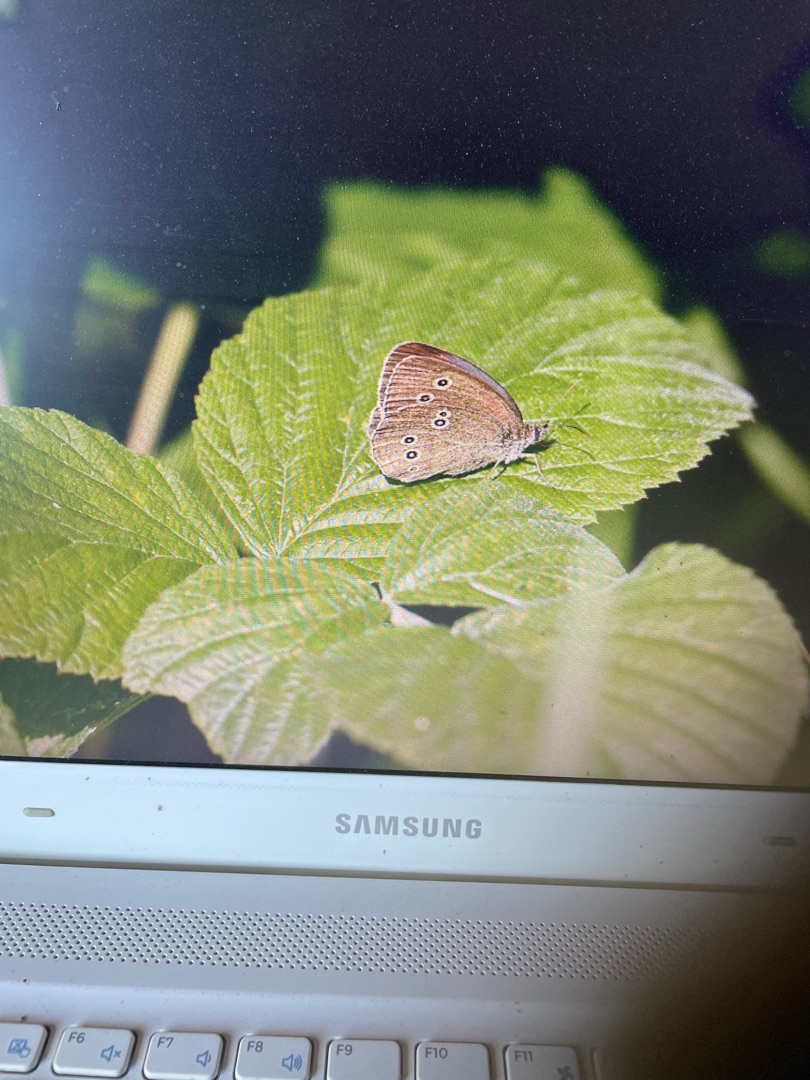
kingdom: Animalia
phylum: Arthropoda
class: Insecta
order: Lepidoptera
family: Nymphalidae
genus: Aphantopus
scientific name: Aphantopus hyperantus
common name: Engrandøje
